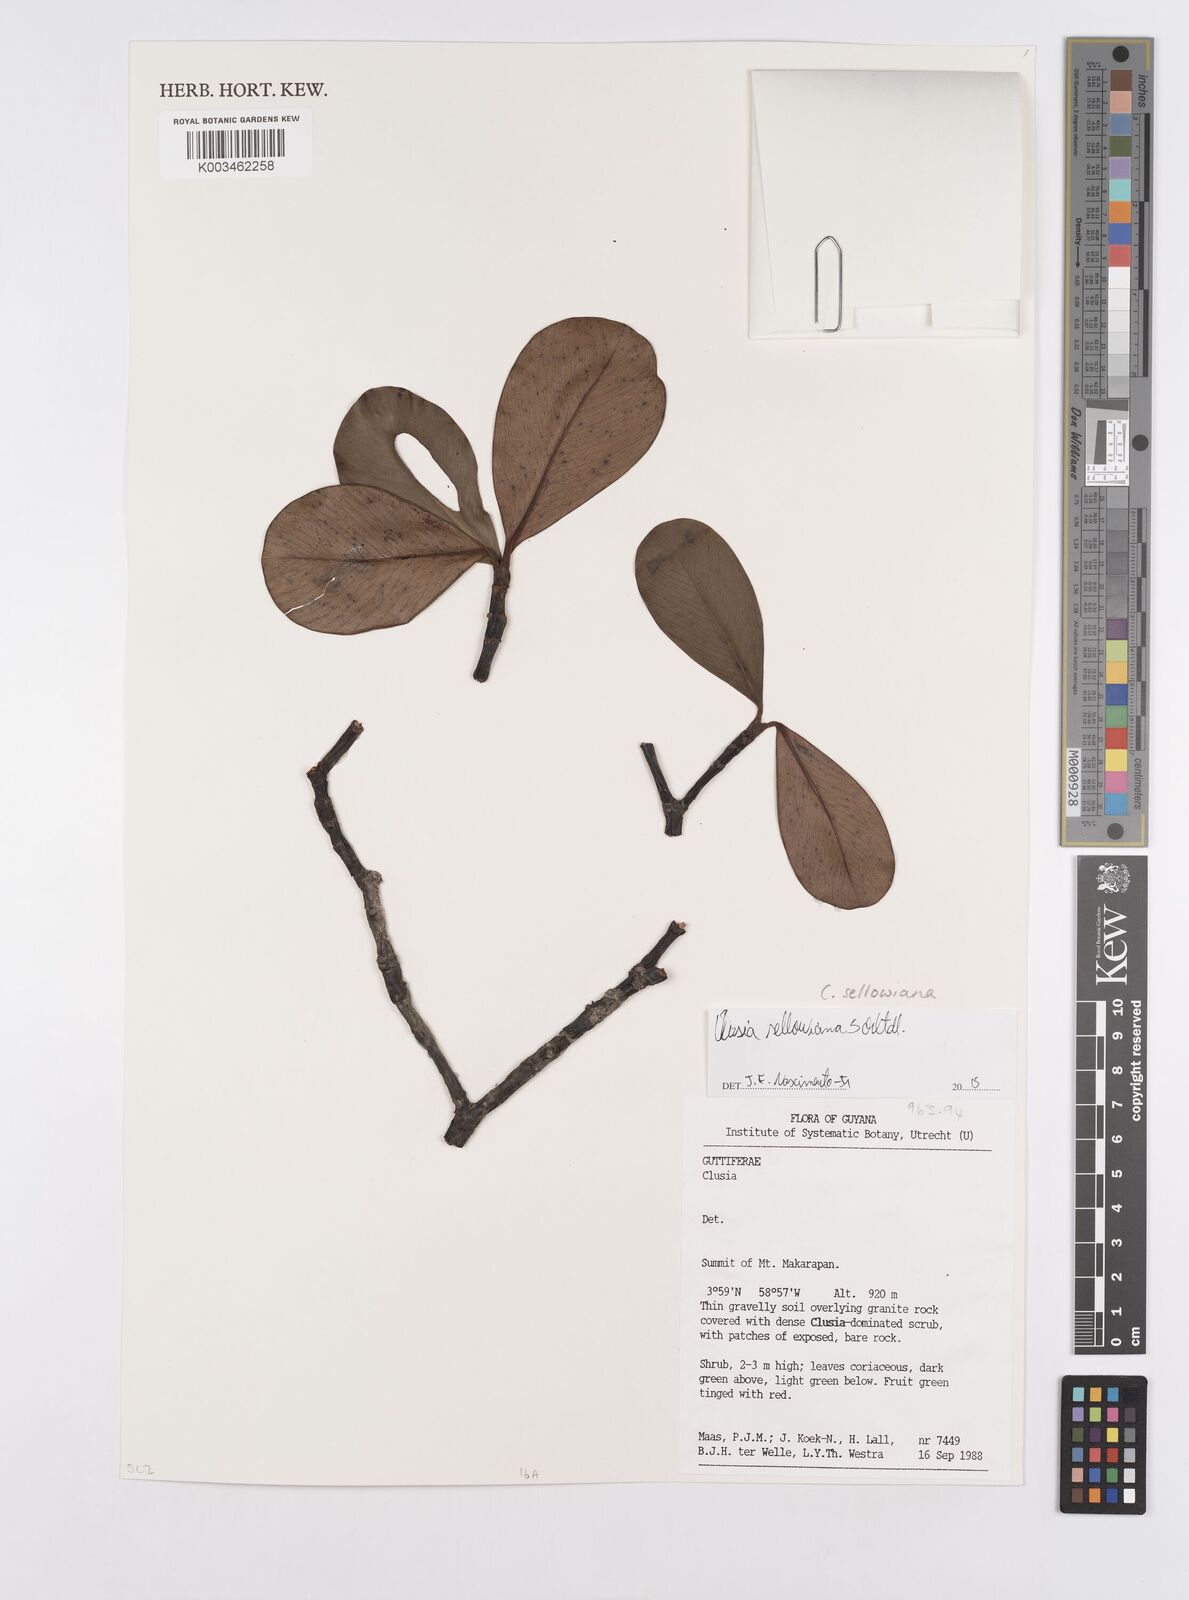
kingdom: Plantae
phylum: Tracheophyta
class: Magnoliopsida
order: Malpighiales
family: Clusiaceae
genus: Clusia
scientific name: Clusia sellowiana
